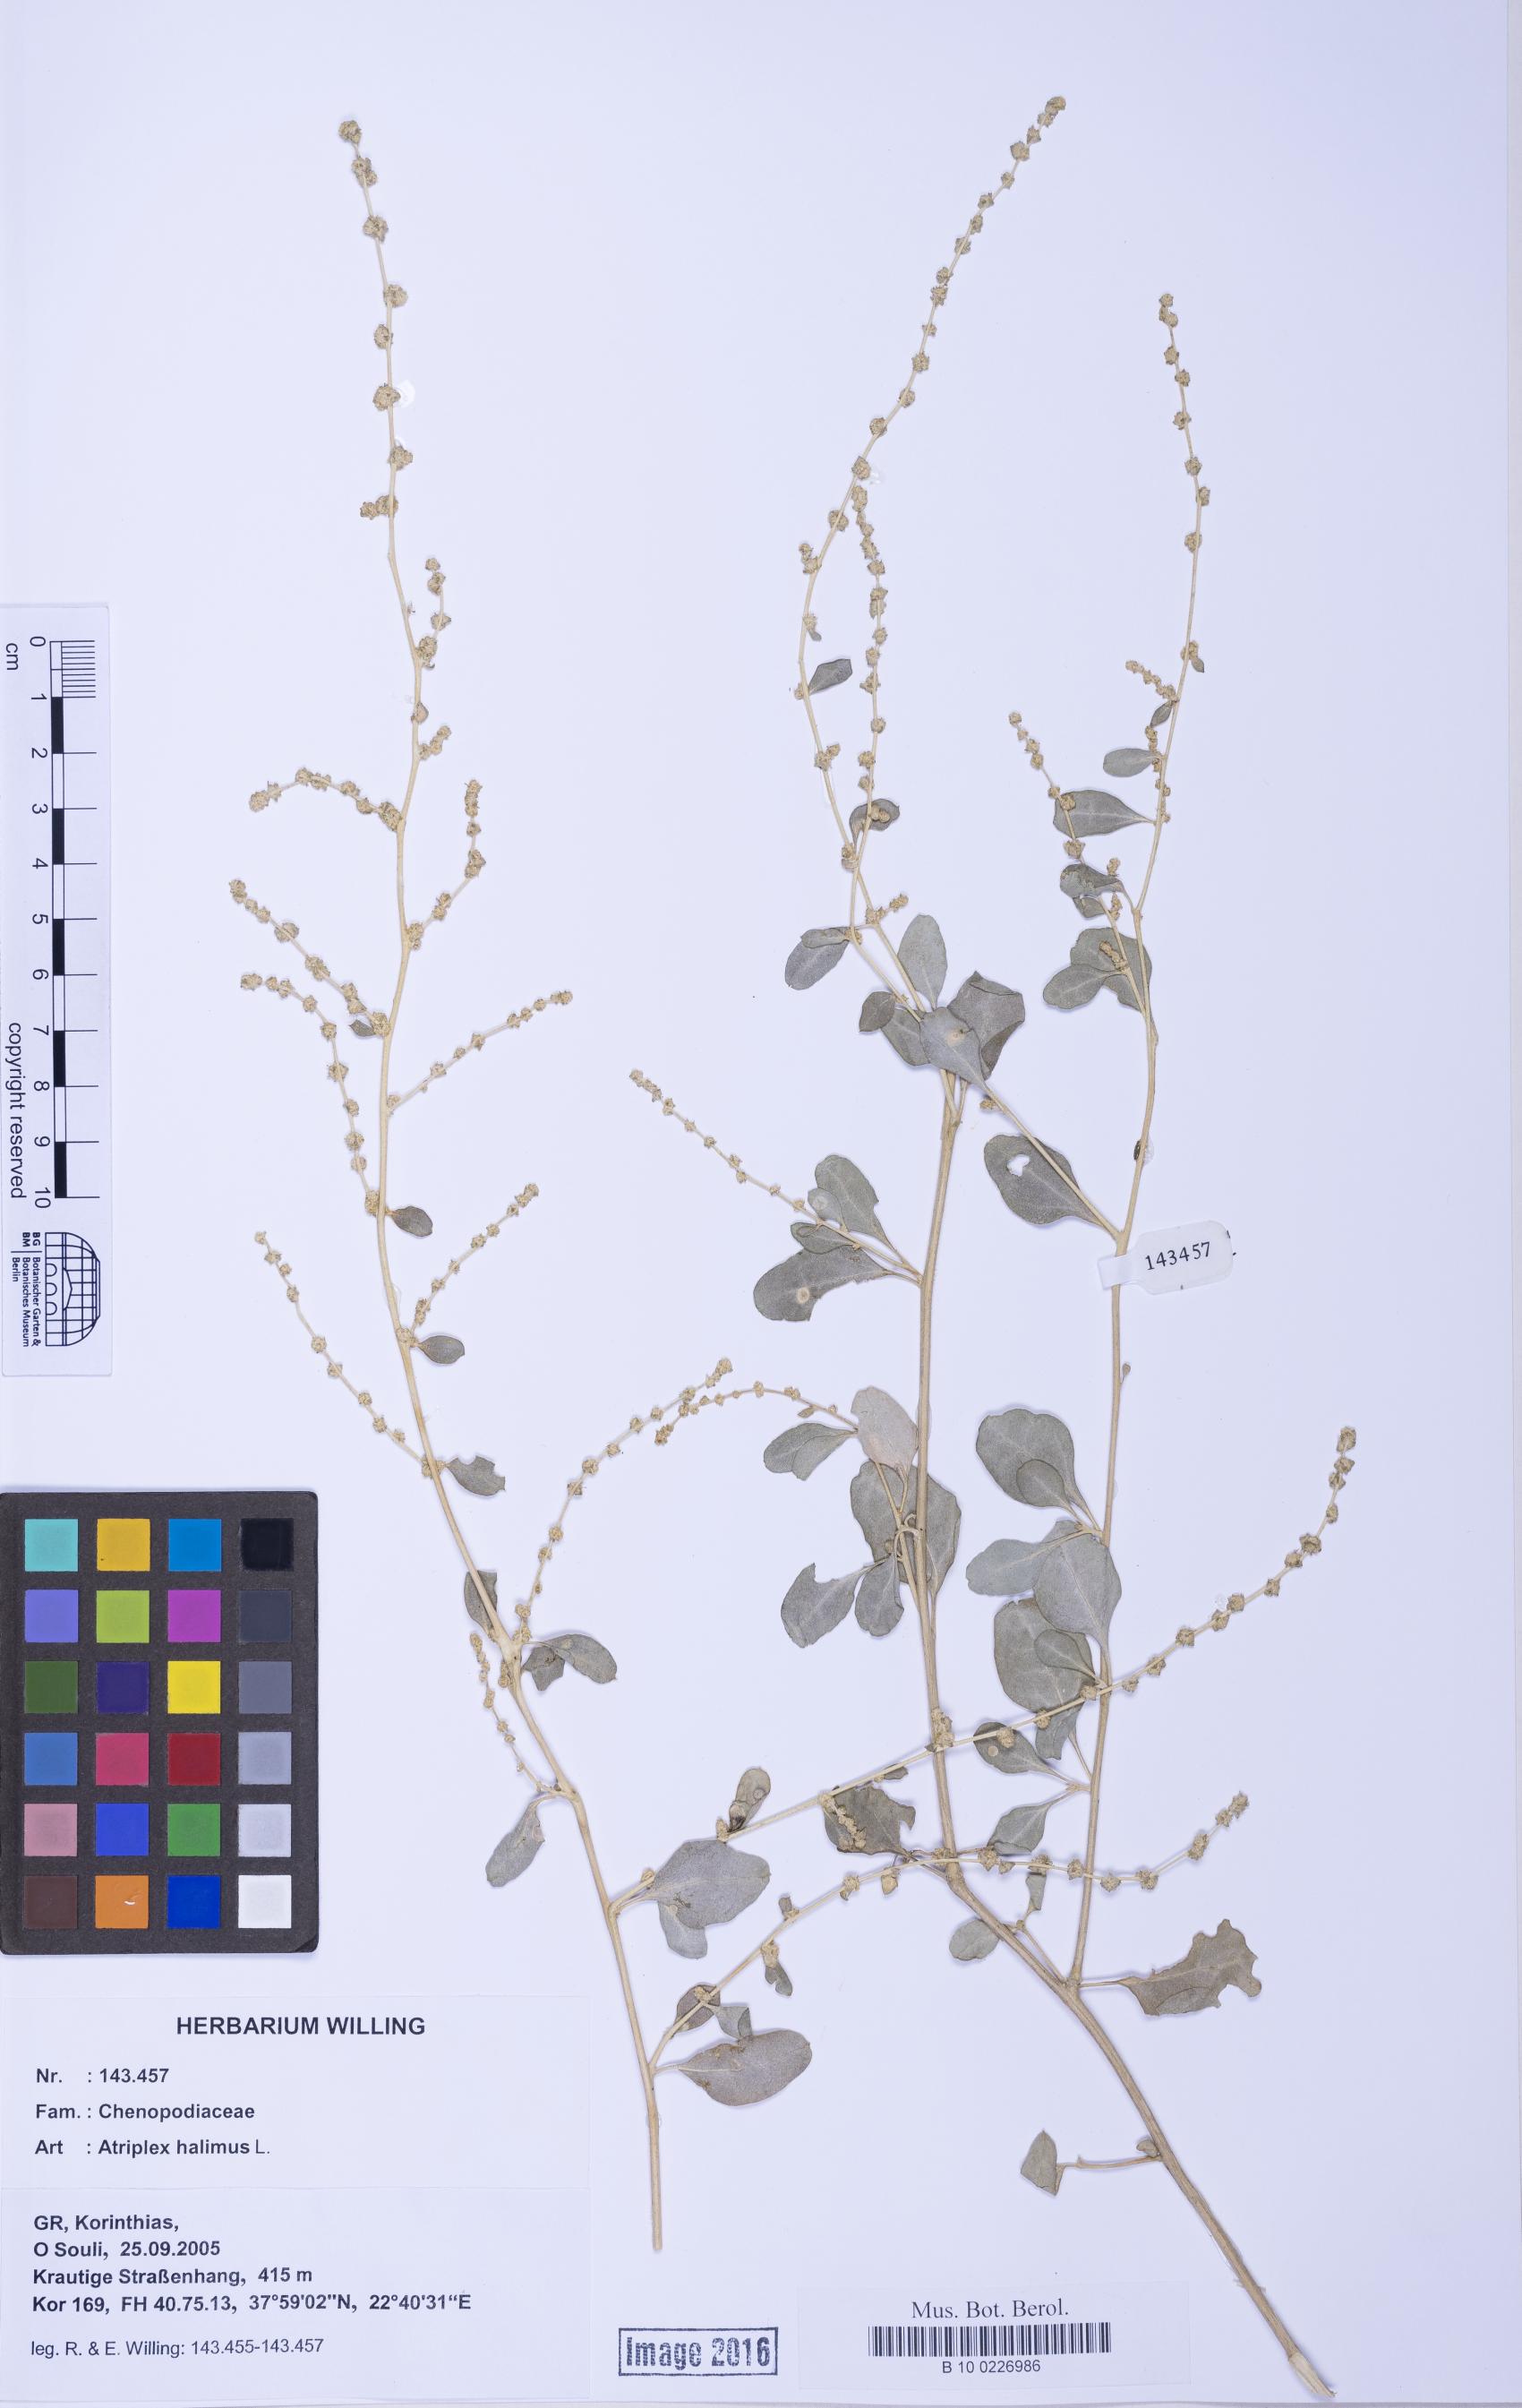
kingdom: Plantae
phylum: Tracheophyta
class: Liliopsida
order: Poales
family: Poaceae
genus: Agrostis
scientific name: Agrostis gigantea
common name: Black bent
